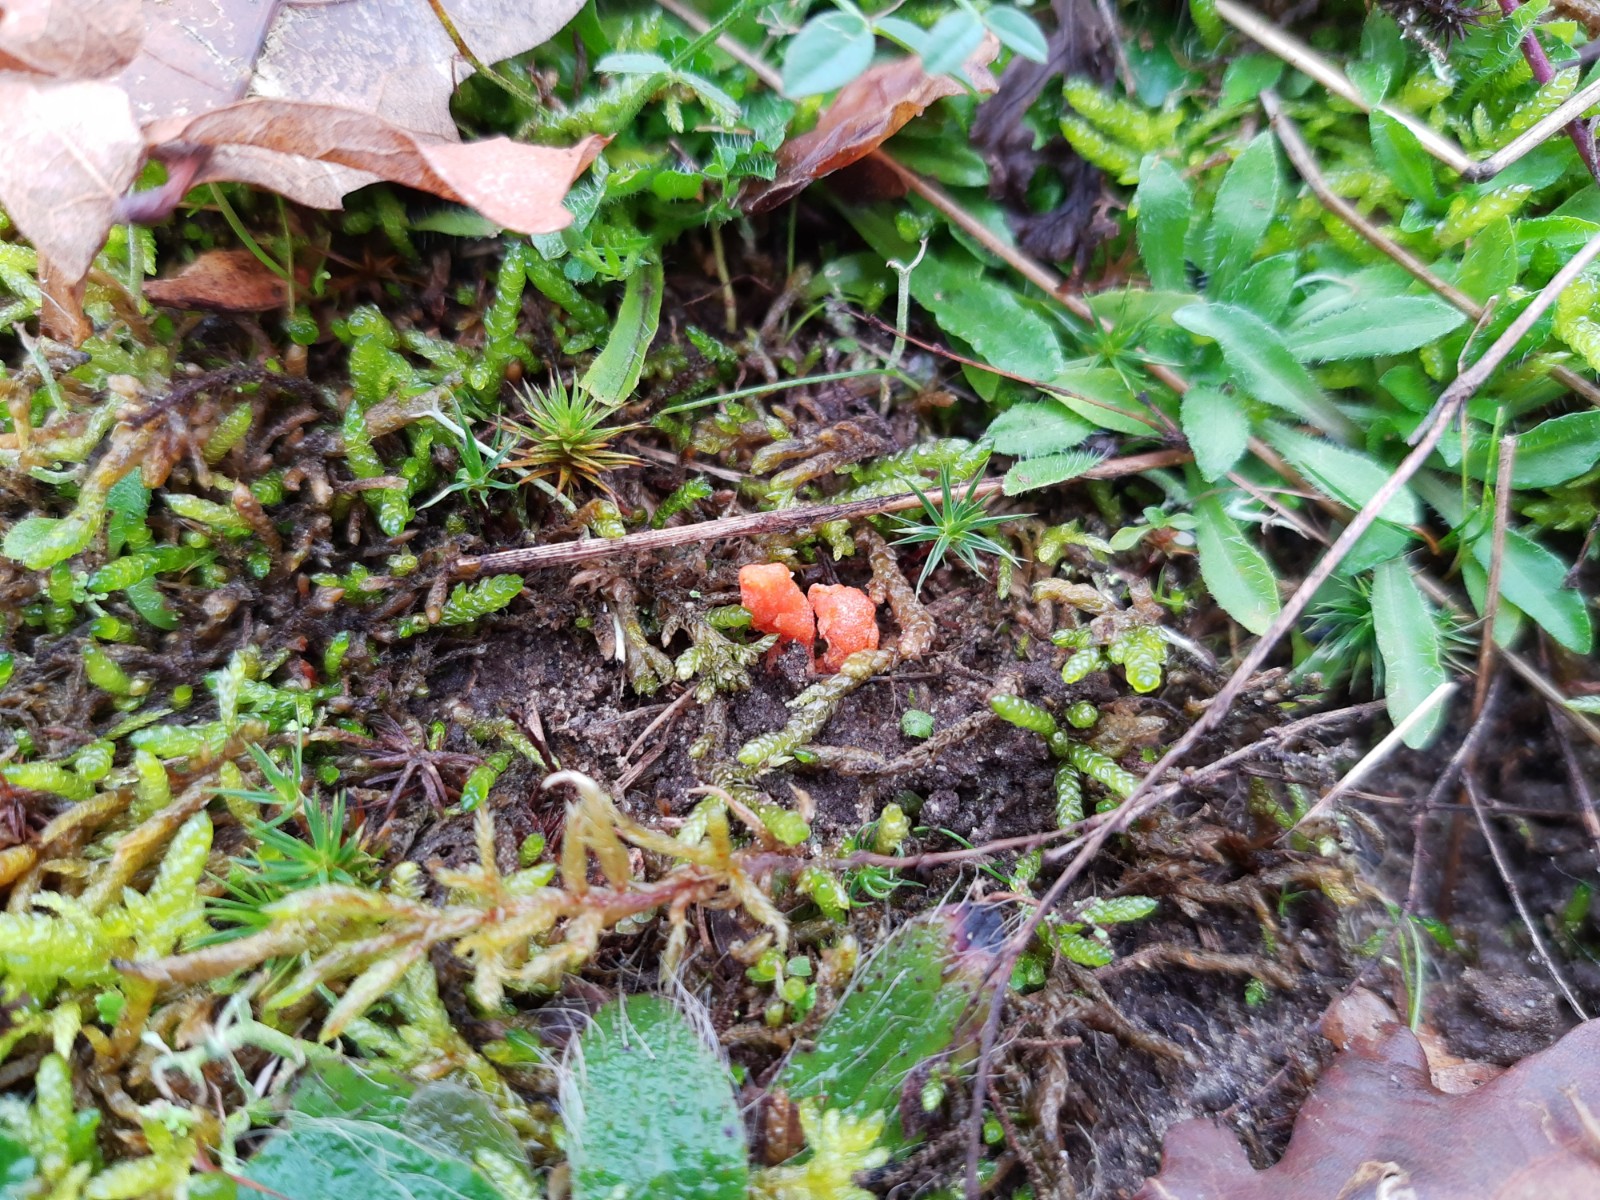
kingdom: Fungi
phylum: Ascomycota
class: Sordariomycetes
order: Hypocreales
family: Cordycipitaceae
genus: Cordyceps
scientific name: Cordyceps militaris
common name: puppe-snyltekølle
